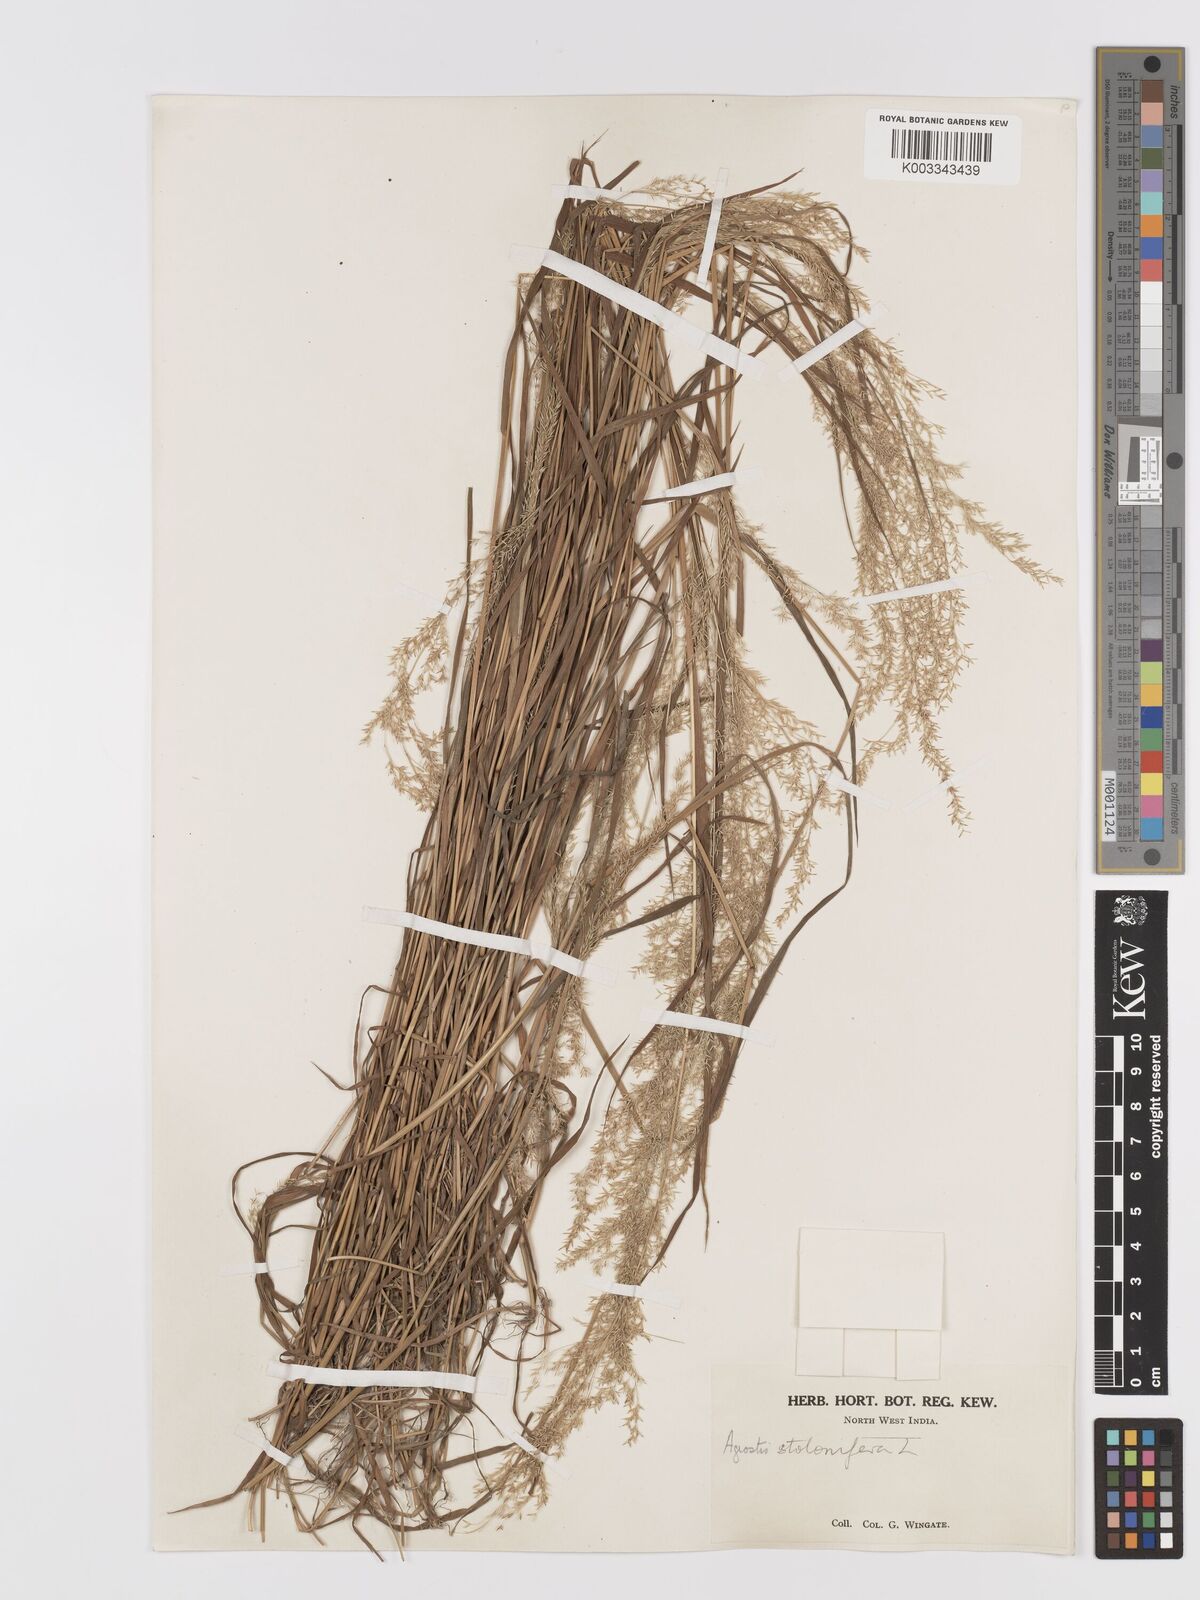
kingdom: Plantae
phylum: Tracheophyta
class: Liliopsida
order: Poales
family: Poaceae
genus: Agrostis
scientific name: Agrostis stolonifera
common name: Creeping bentgrass
